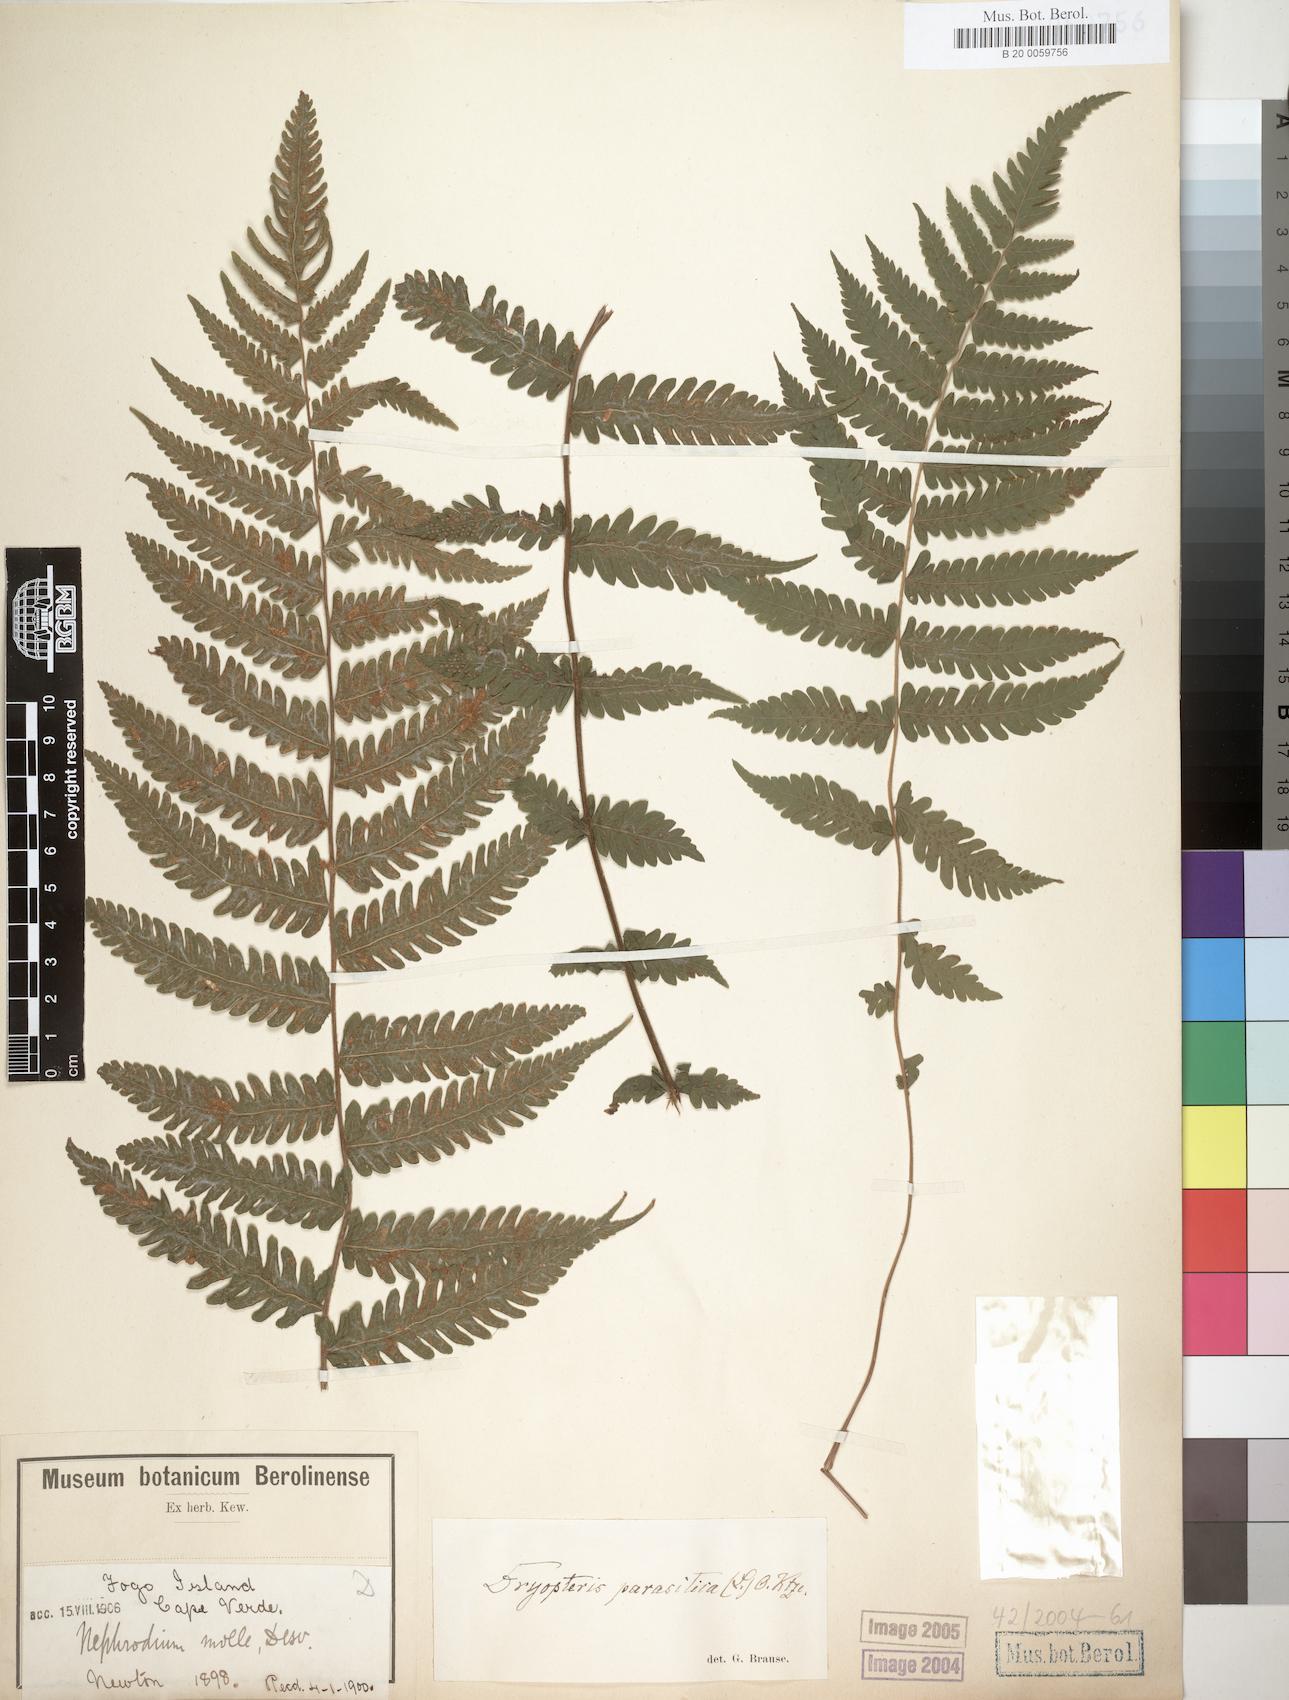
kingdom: Plantae
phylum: Tracheophyta
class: Polypodiopsida
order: Polypodiales
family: Thelypteridaceae
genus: Christella
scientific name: Christella dentata
